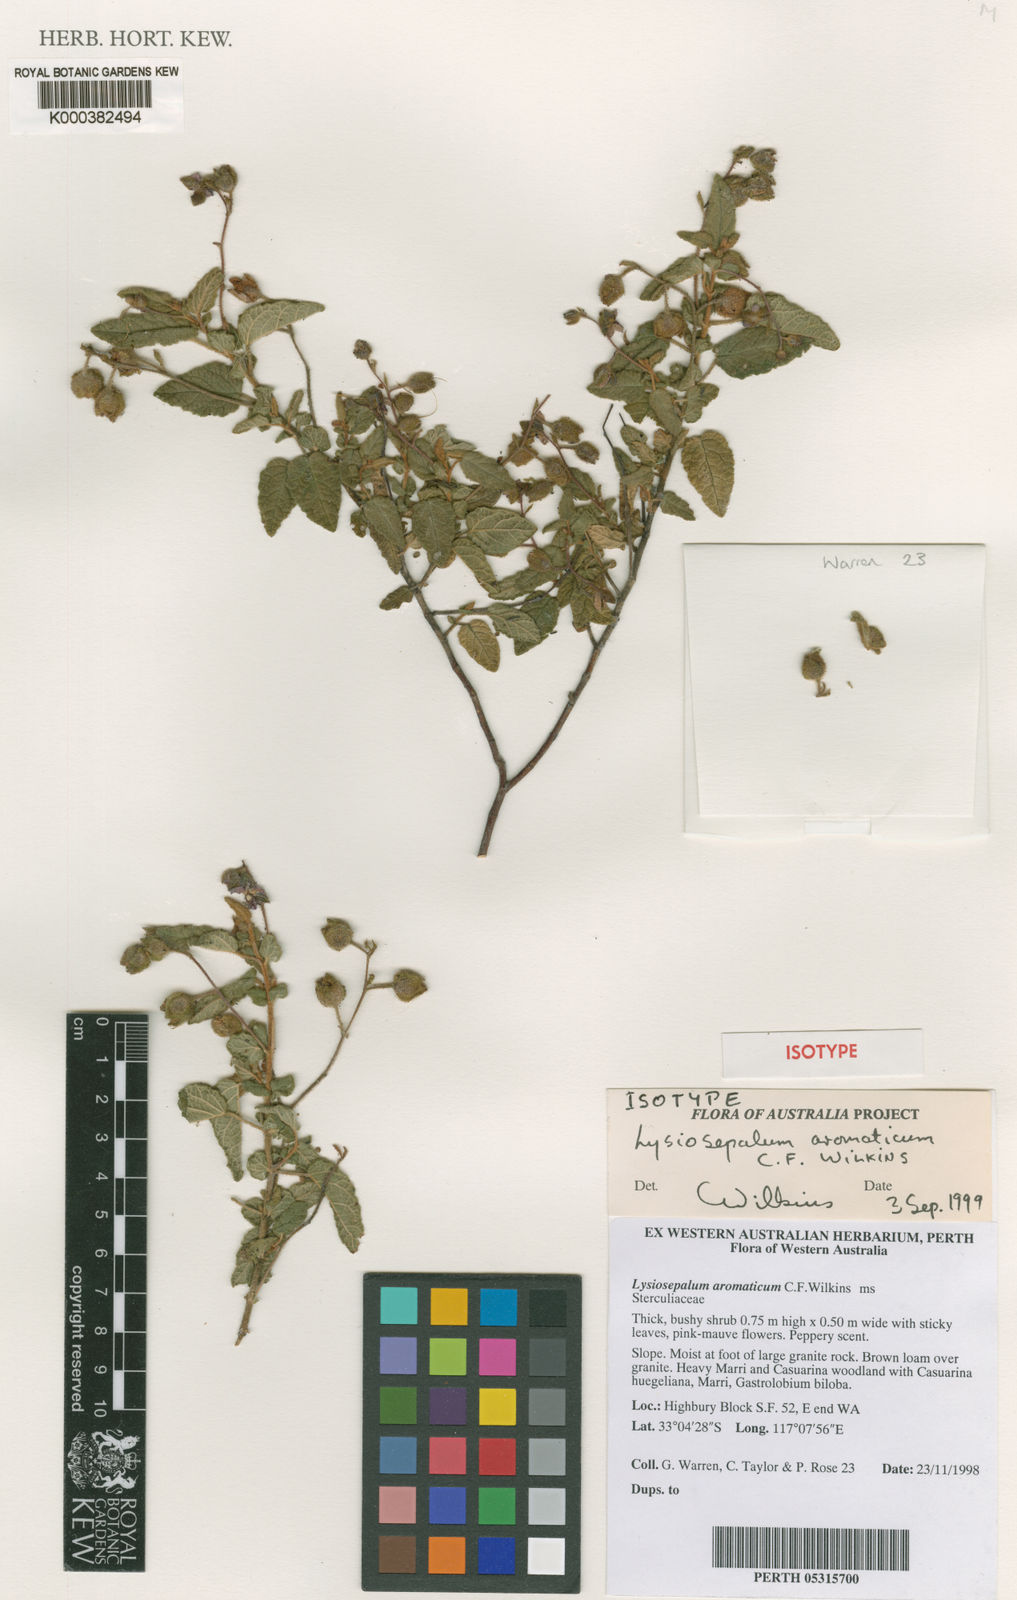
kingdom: Plantae
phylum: Tracheophyta
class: Magnoliopsida
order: Malvales
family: Malvaceae
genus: Lysiosepalum
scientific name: Lysiosepalum aromaticum
